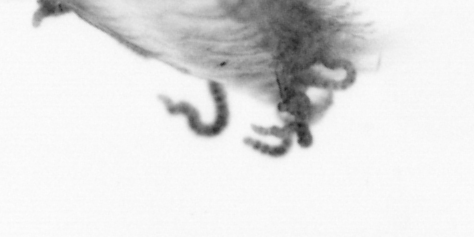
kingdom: Animalia
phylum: Arthropoda
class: Copepoda
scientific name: Copepoda
